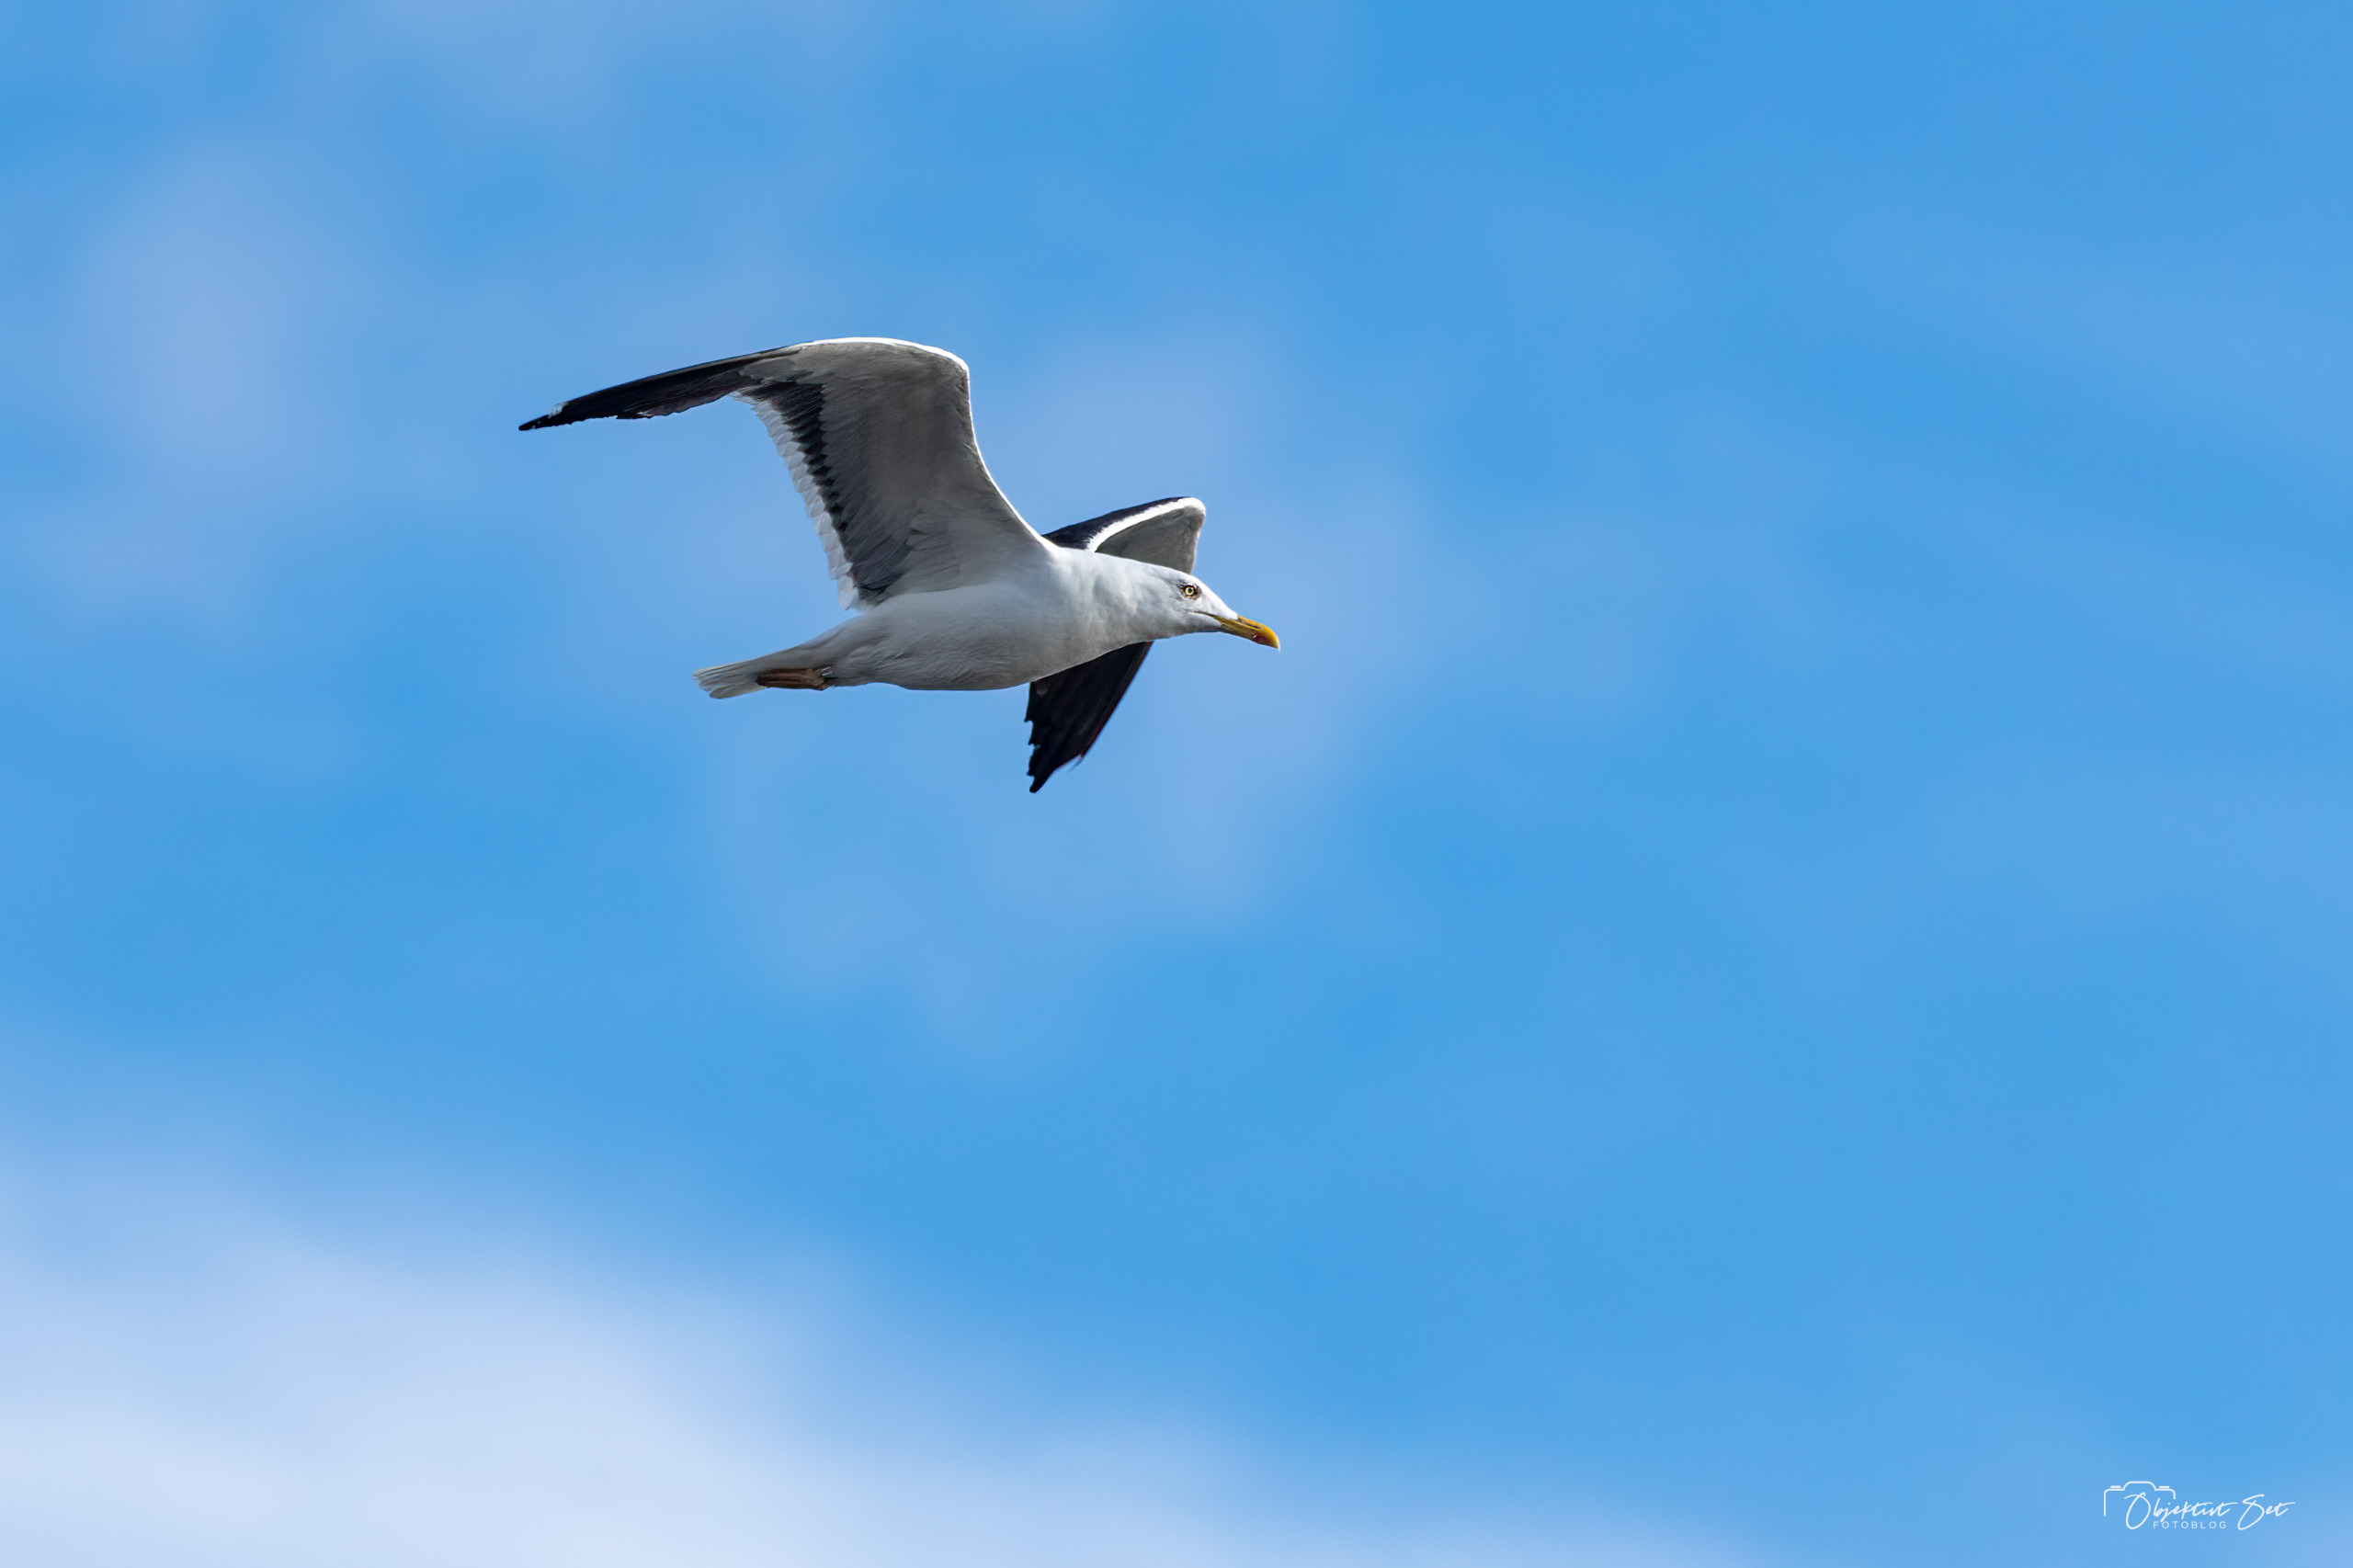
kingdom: Animalia
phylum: Chordata
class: Aves
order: Charadriiformes
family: Laridae
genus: Larus
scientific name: Larus fuscus
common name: Sildemåge
